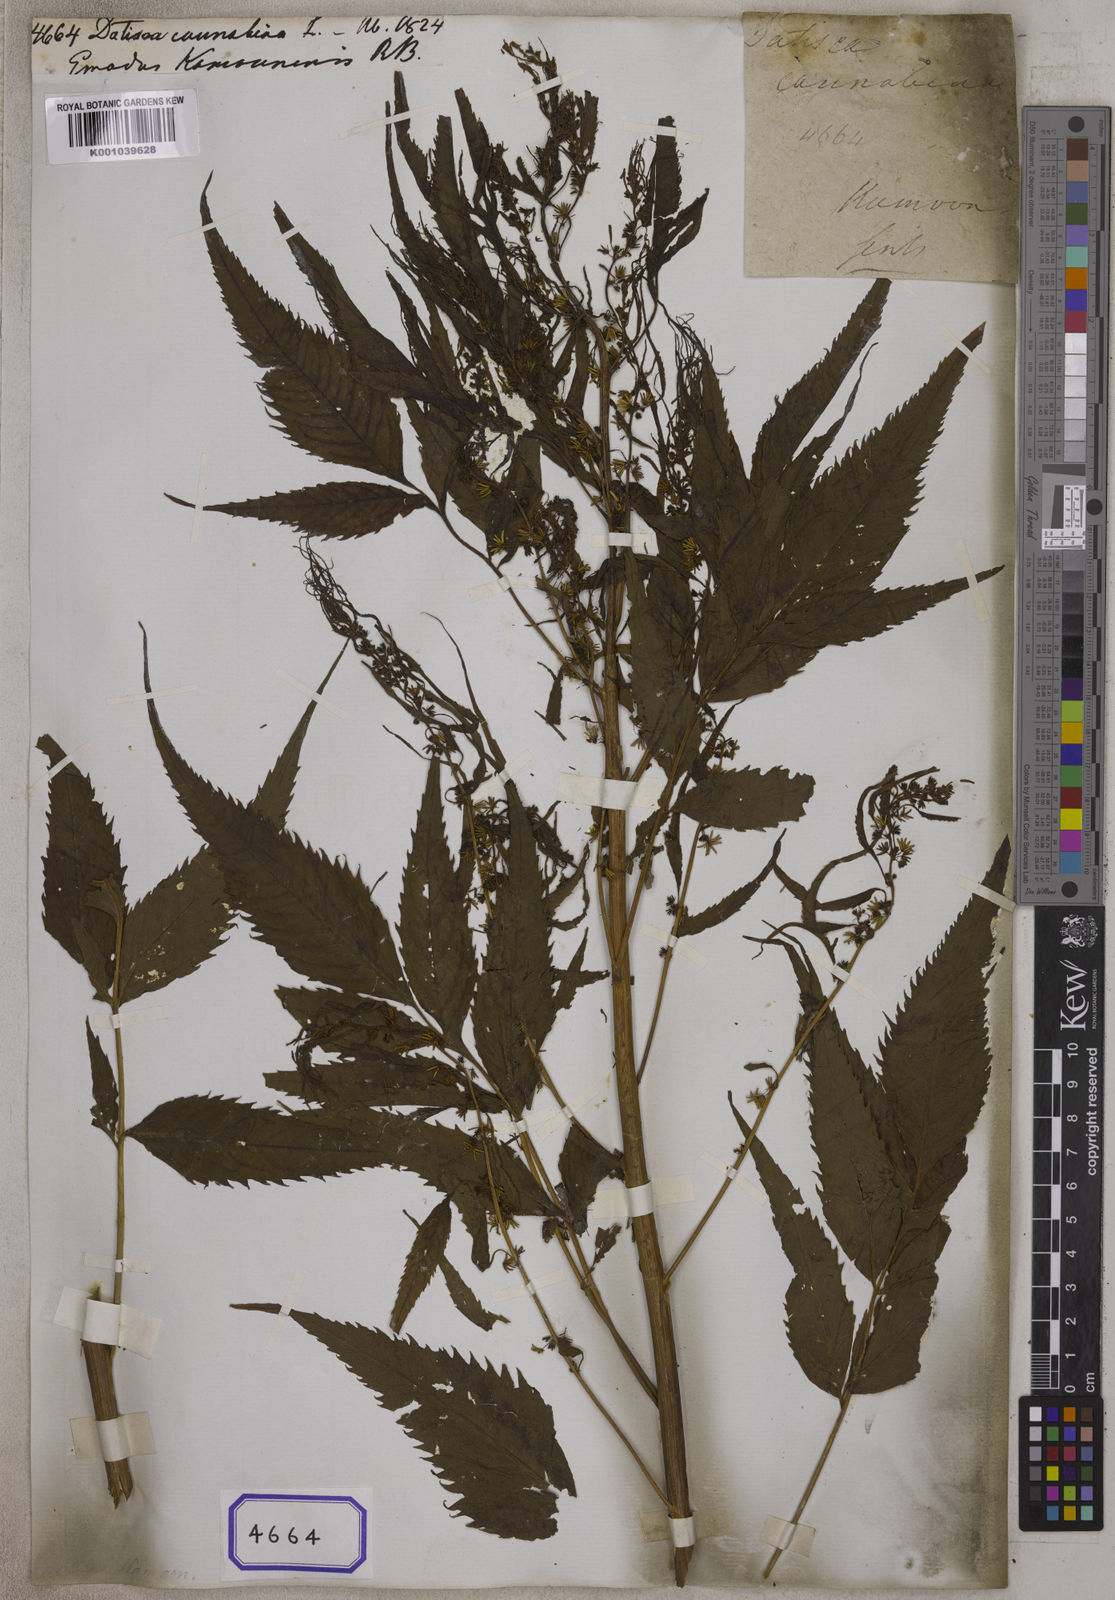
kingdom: Plantae
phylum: Tracheophyta
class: Magnoliopsida
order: Cucurbitales
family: Datiscaceae
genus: Datisca
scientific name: Datisca cannabina
